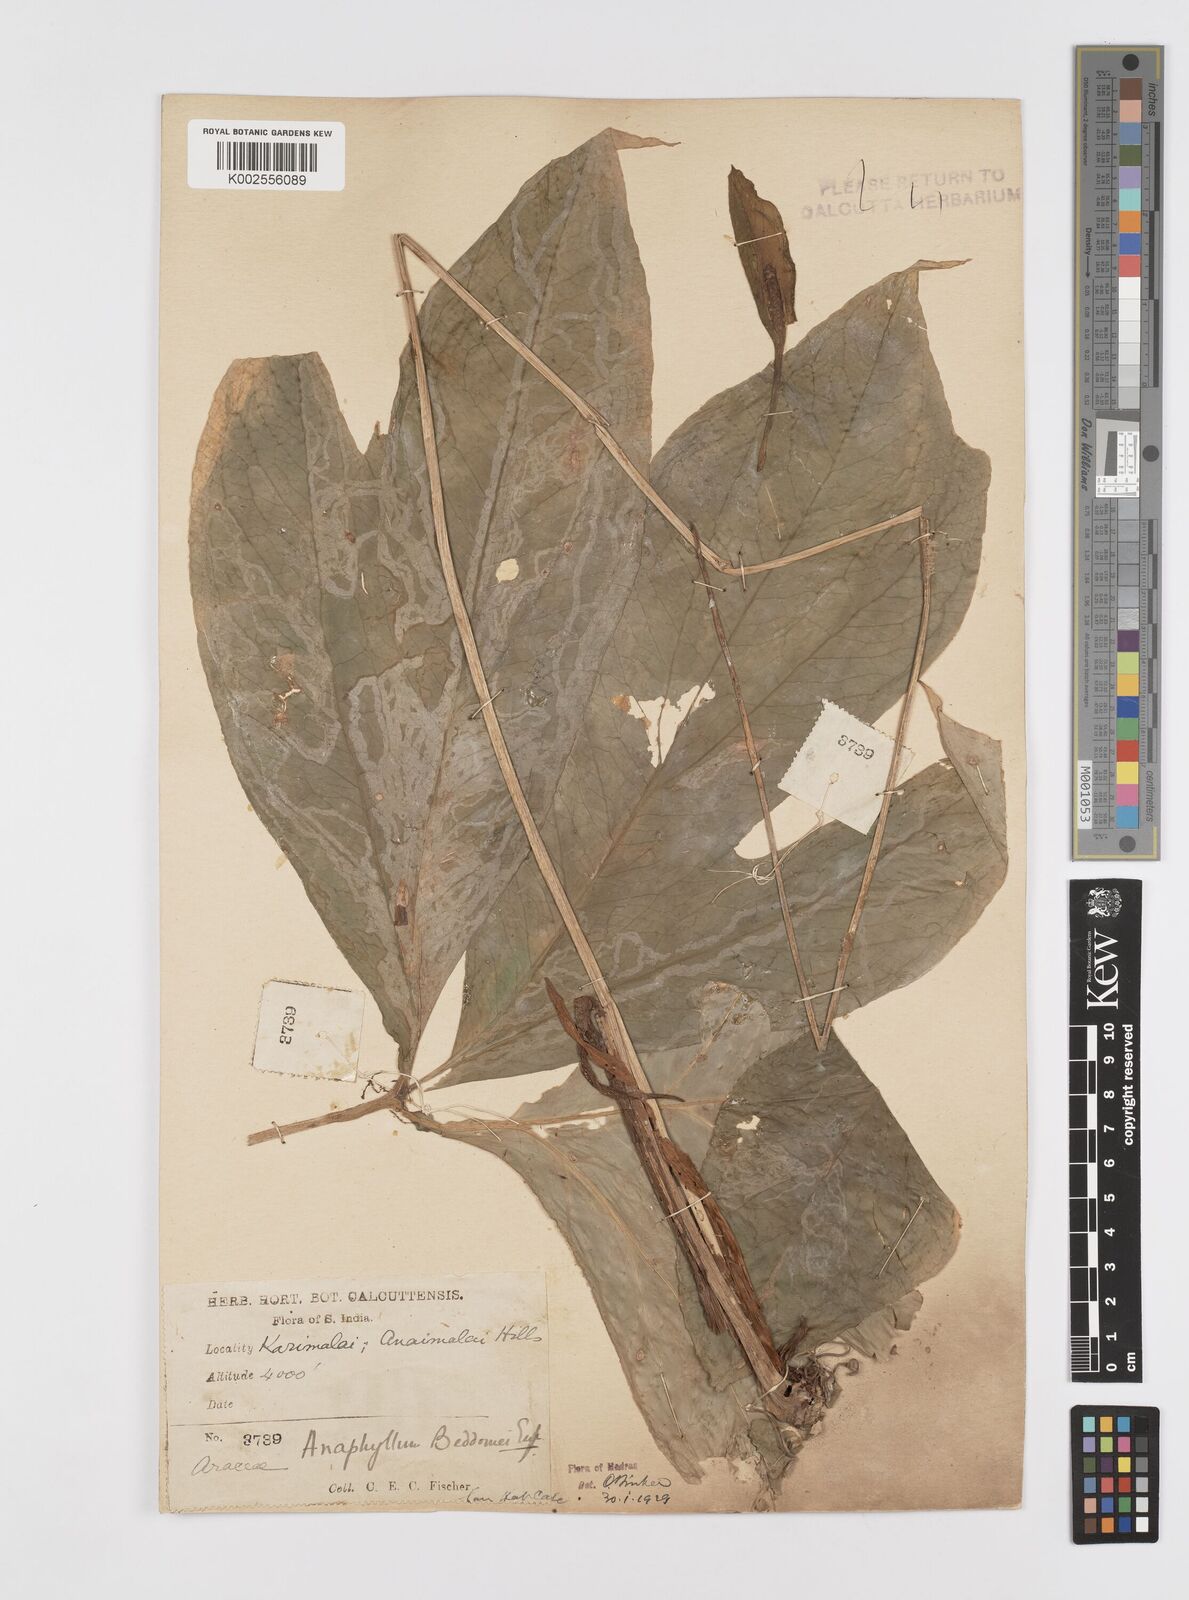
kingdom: Plantae
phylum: Tracheophyta
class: Liliopsida
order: Alismatales
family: Araceae
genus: Anaphyllum
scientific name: Anaphyllum beddomei
